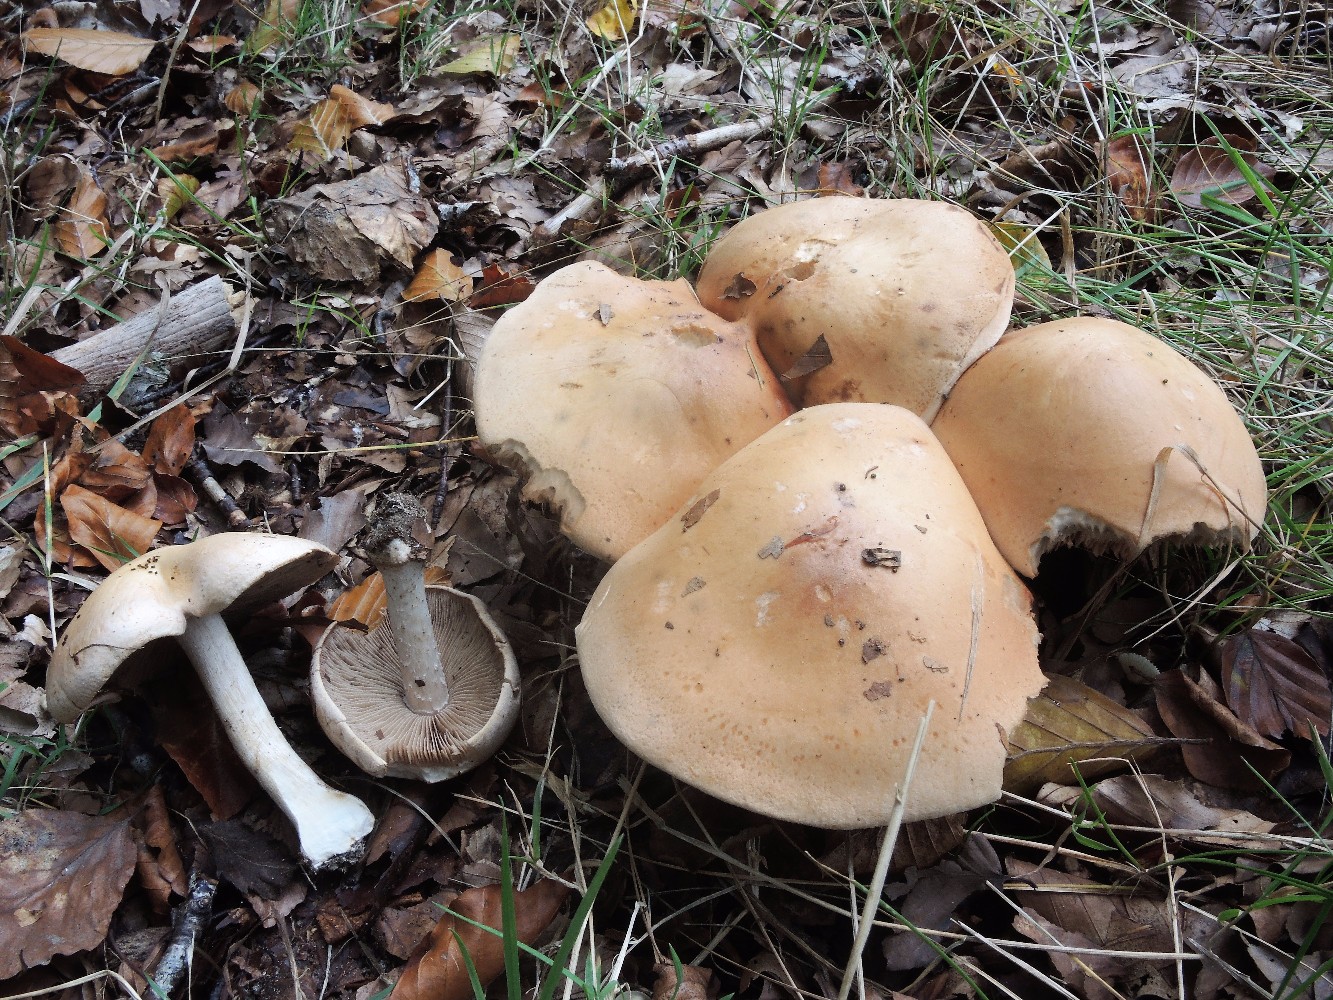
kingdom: Fungi
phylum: Basidiomycota
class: Agaricomycetes
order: Agaricales
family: Hymenogastraceae
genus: Hebeloma
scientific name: Hebeloma sinapizans
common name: ræddike-tåreblad
